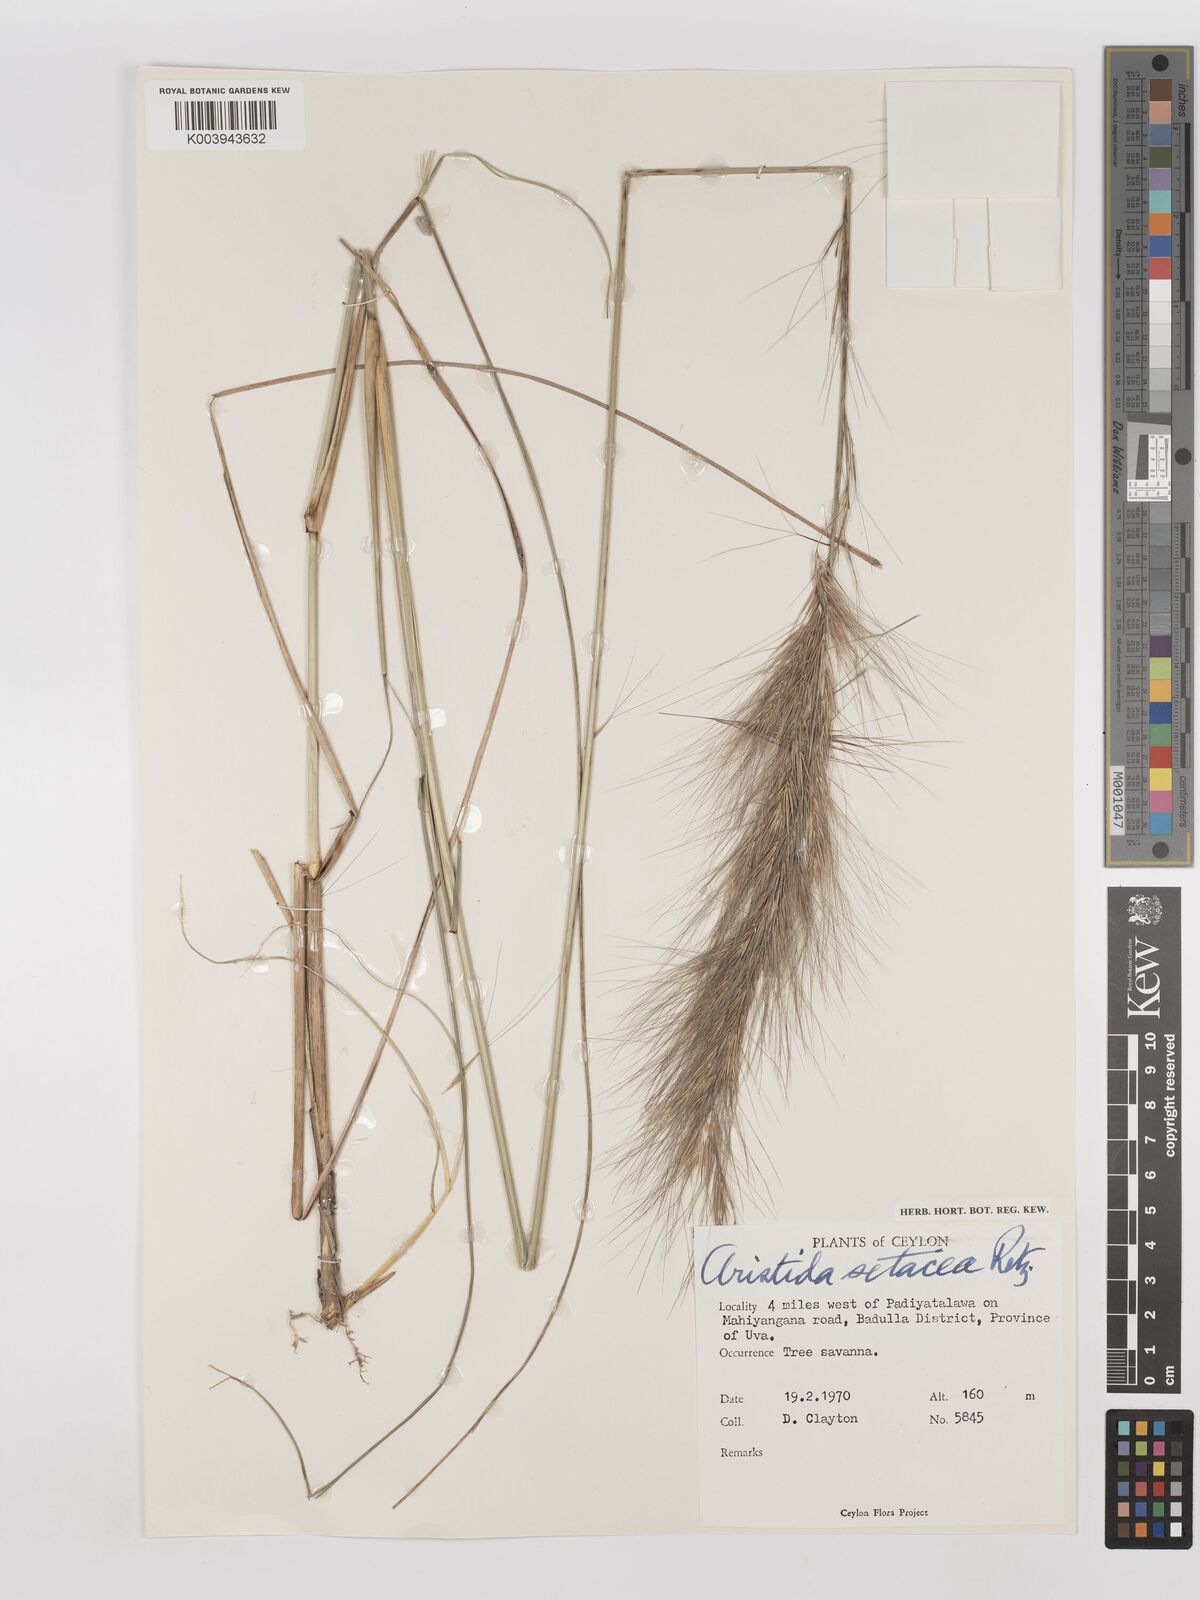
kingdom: Plantae
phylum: Tracheophyta
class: Liliopsida
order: Poales
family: Poaceae
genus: Aristida
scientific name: Aristida setacea
